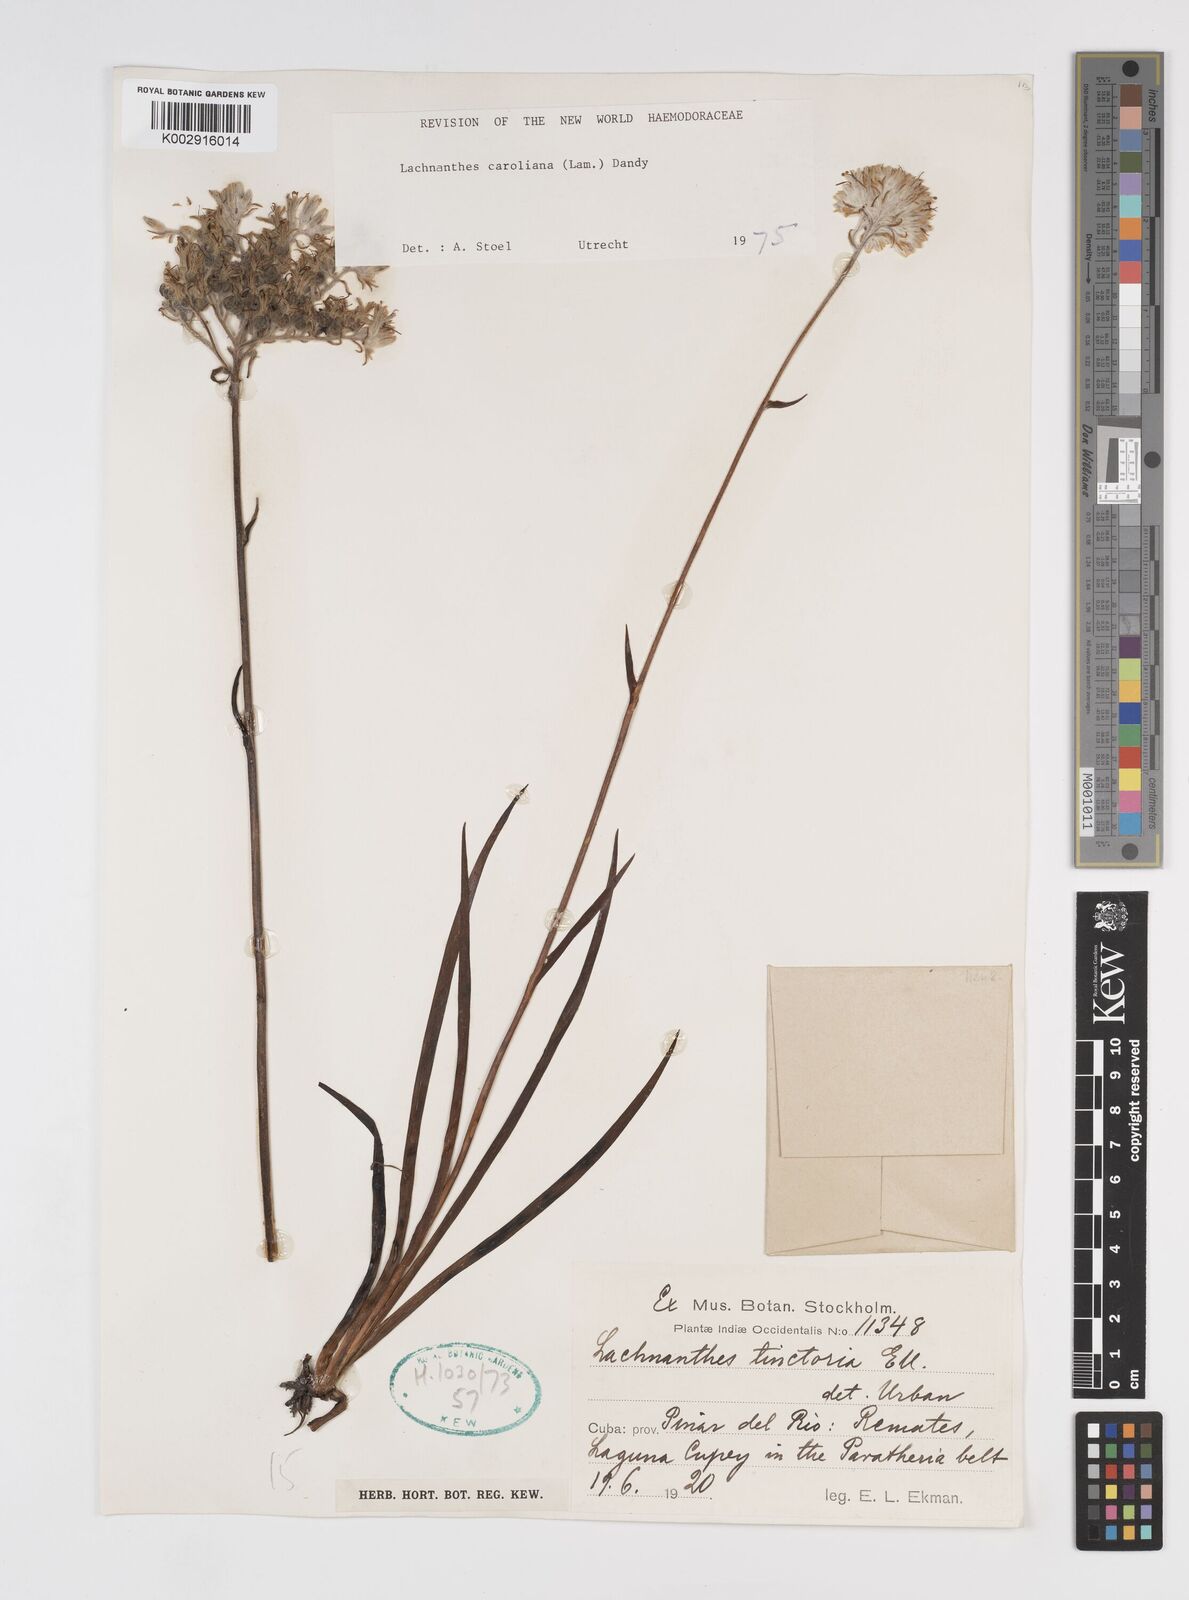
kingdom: Plantae
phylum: Tracheophyta
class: Liliopsida
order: Commelinales
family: Haemodoraceae
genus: Lachnanthes
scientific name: Lachnanthes caroliniana
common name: Carolina redroot
